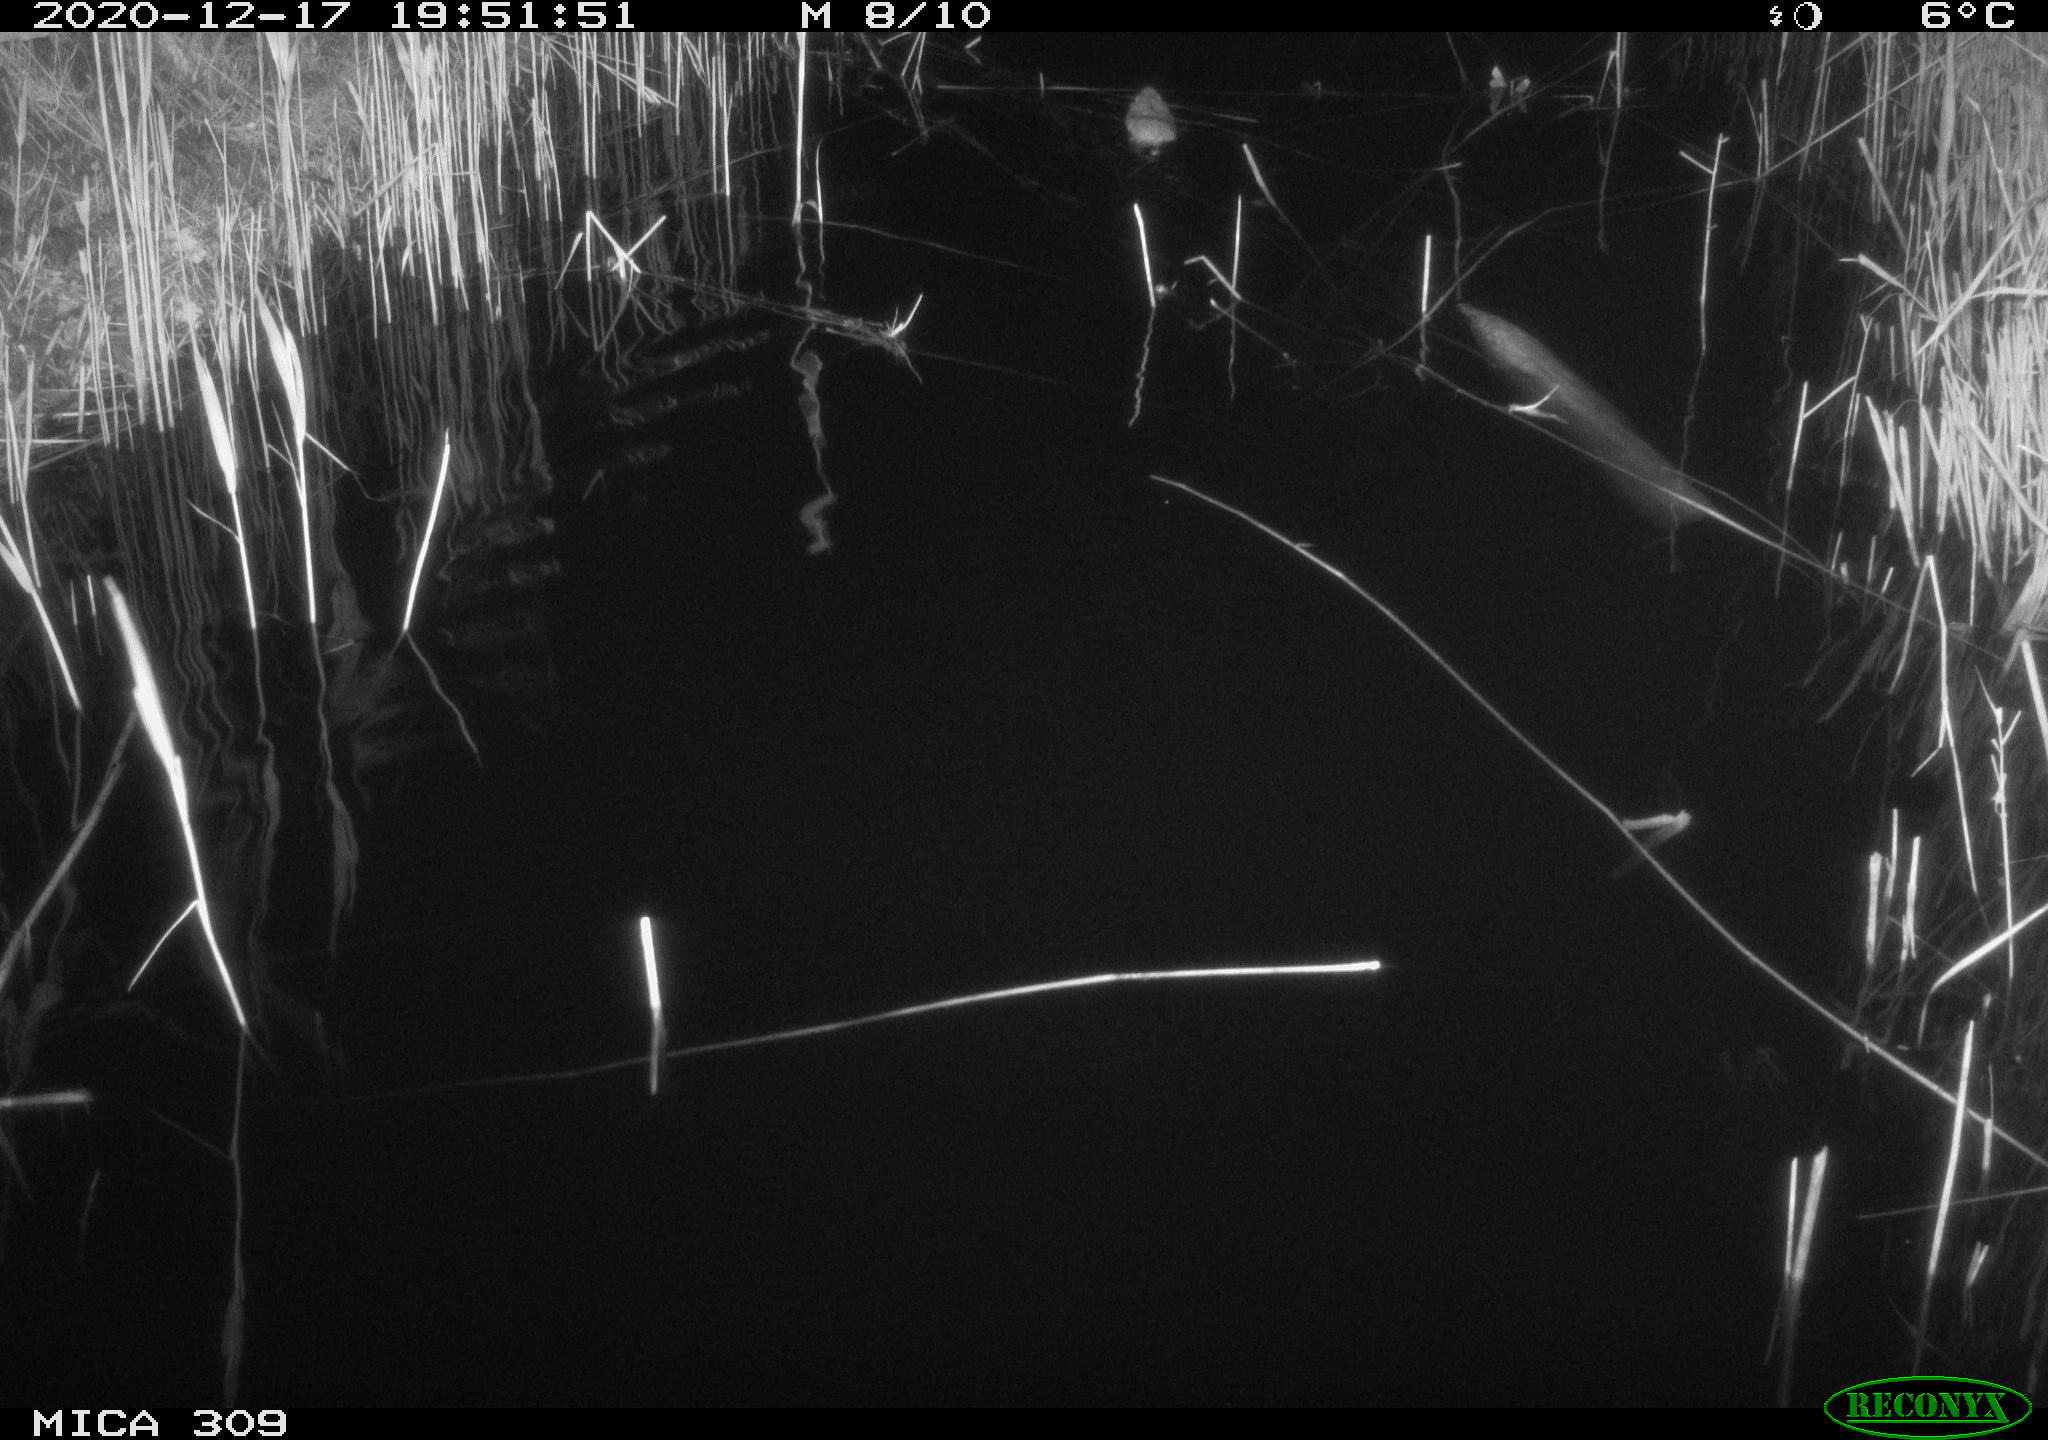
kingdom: Animalia
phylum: Chordata
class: Mammalia
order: Rodentia
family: Cricetidae
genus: Ondatra
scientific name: Ondatra zibethicus
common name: Muskrat
